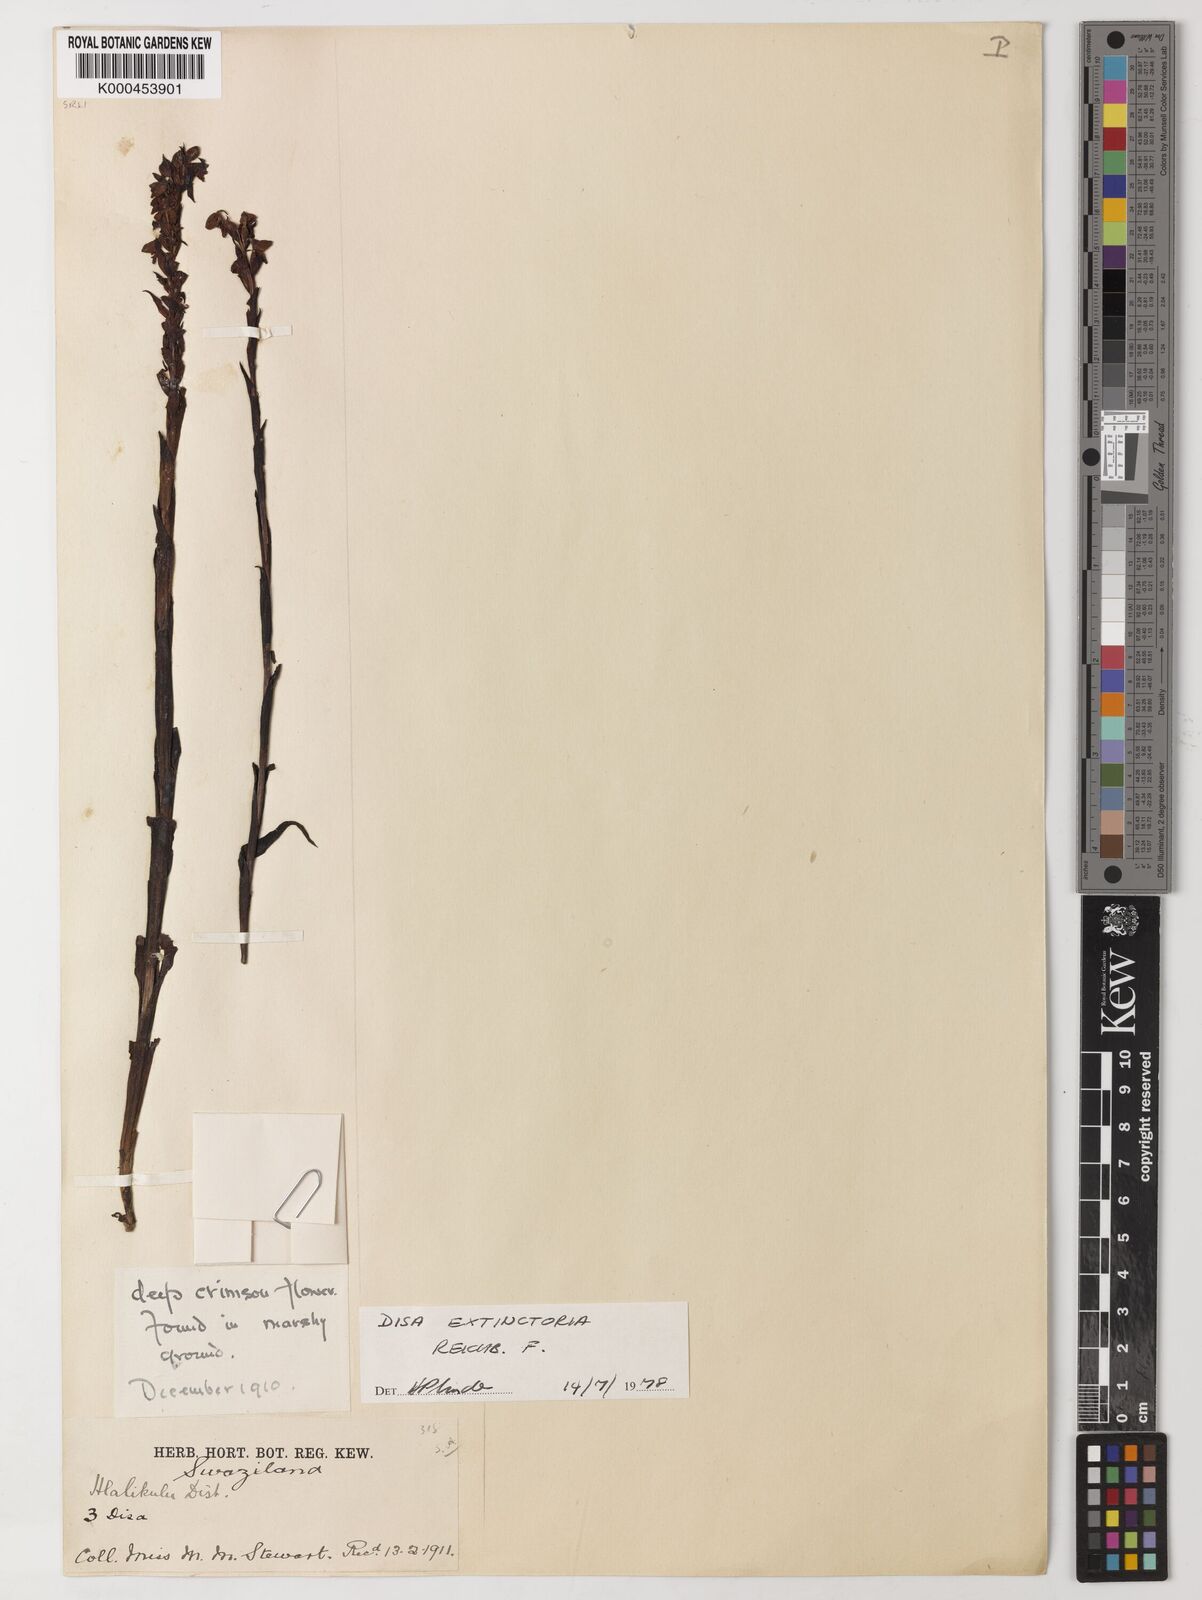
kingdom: Plantae
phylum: Tracheophyta
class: Liliopsida
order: Asparagales
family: Orchidaceae
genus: Disa
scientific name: Disa extinctoria
